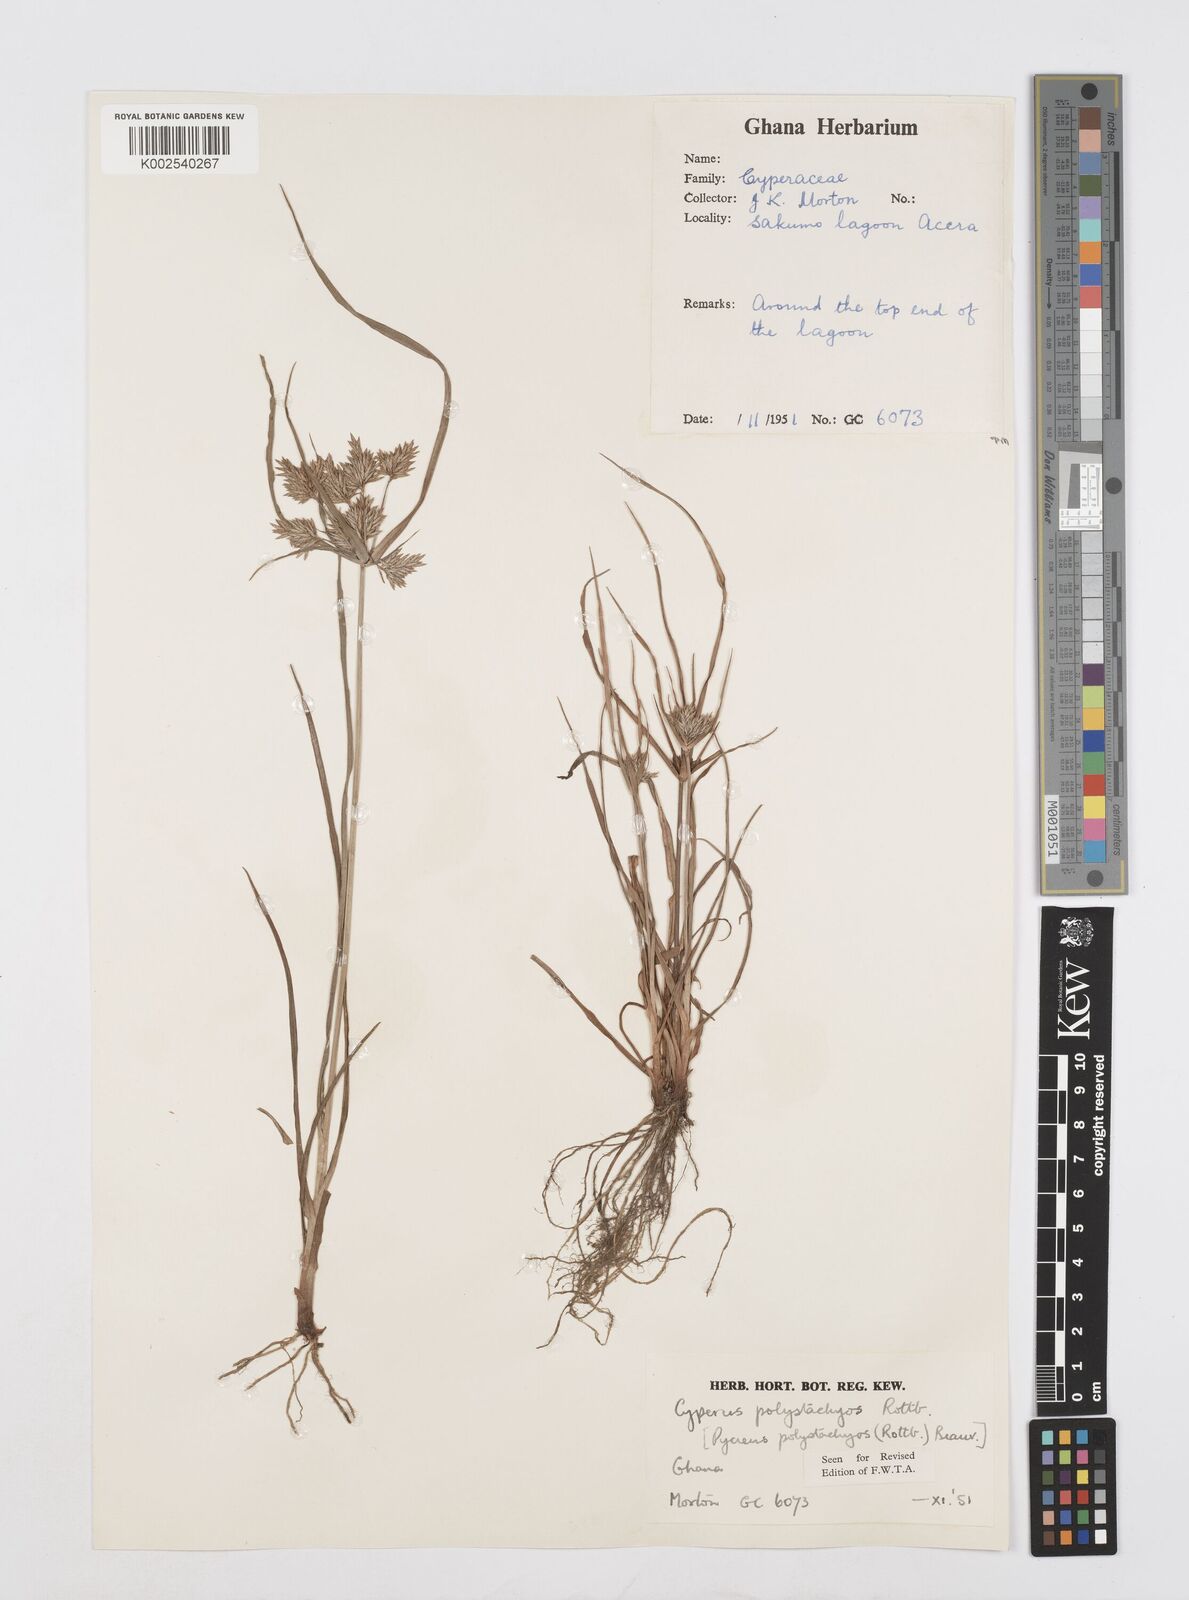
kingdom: Plantae
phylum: Tracheophyta
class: Liliopsida
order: Poales
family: Cyperaceae
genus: Cyperus
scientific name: Cyperus polystachyos
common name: Bunchy flat sedge
